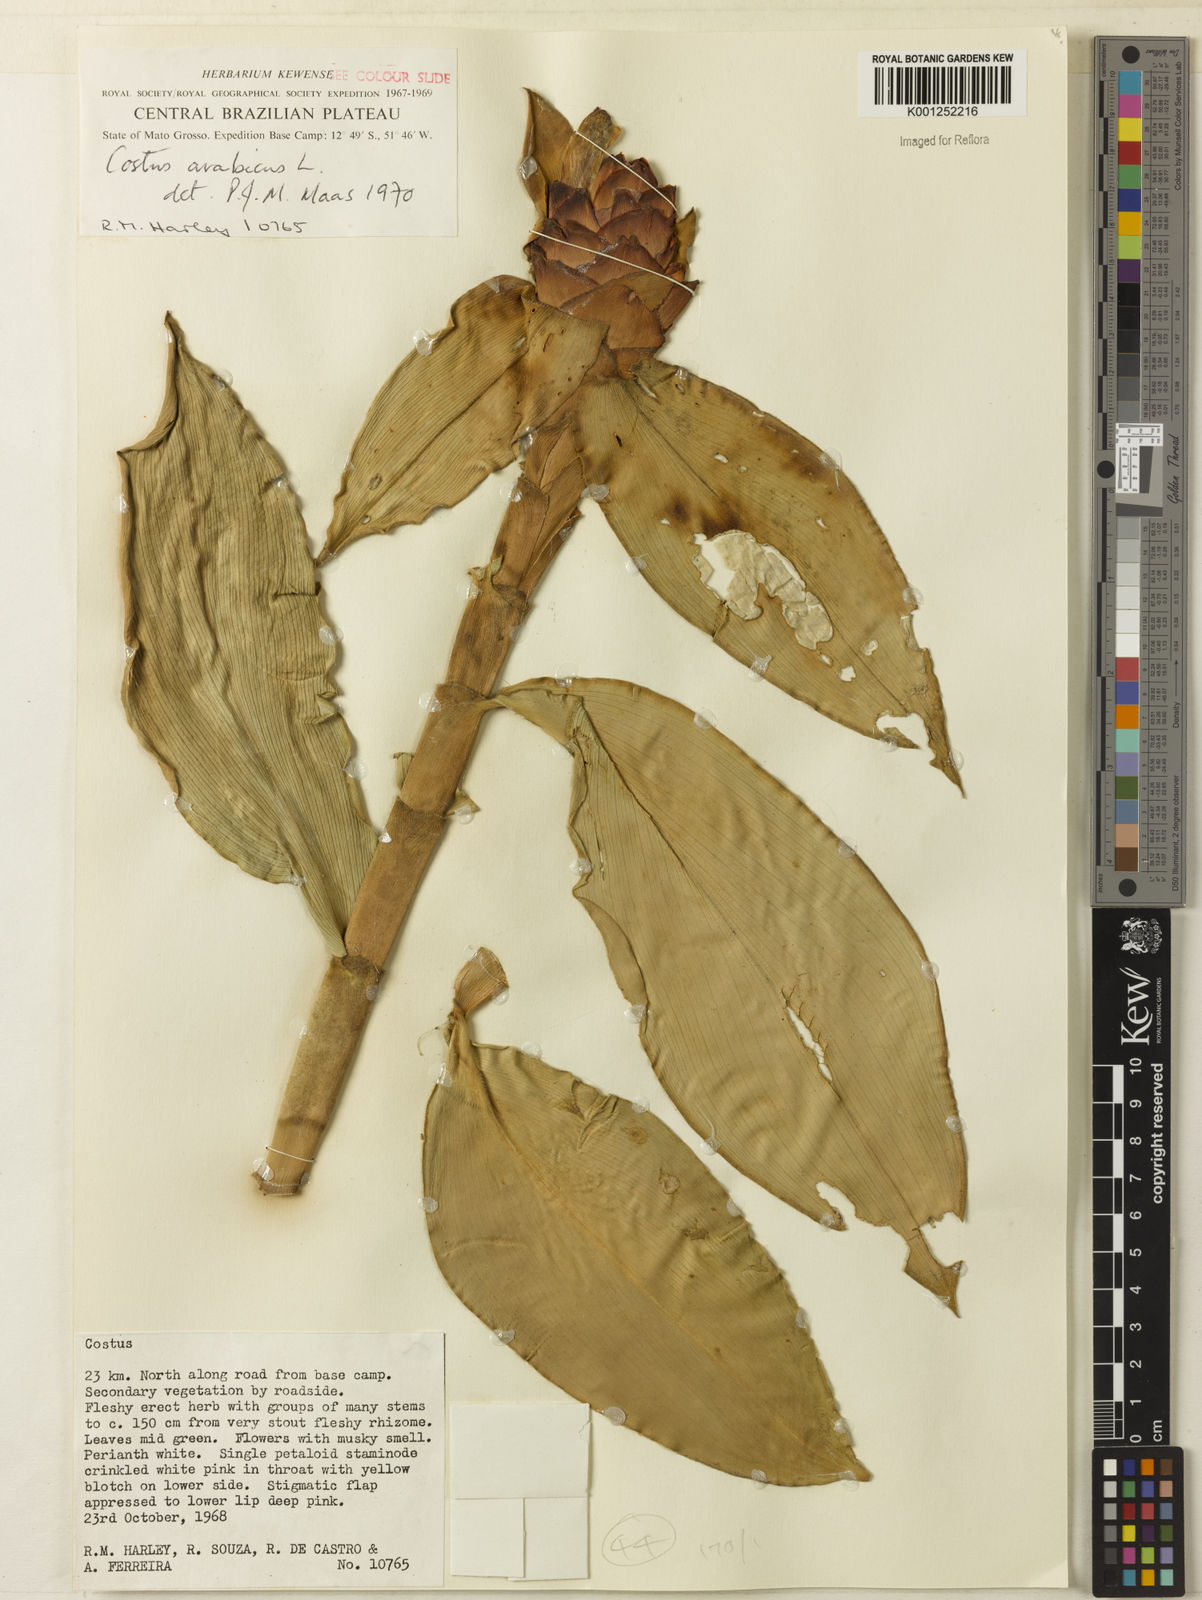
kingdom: Plantae
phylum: Tracheophyta
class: Liliopsida
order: Zingiberales
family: Costaceae
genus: Costus
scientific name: Costus arabicus
